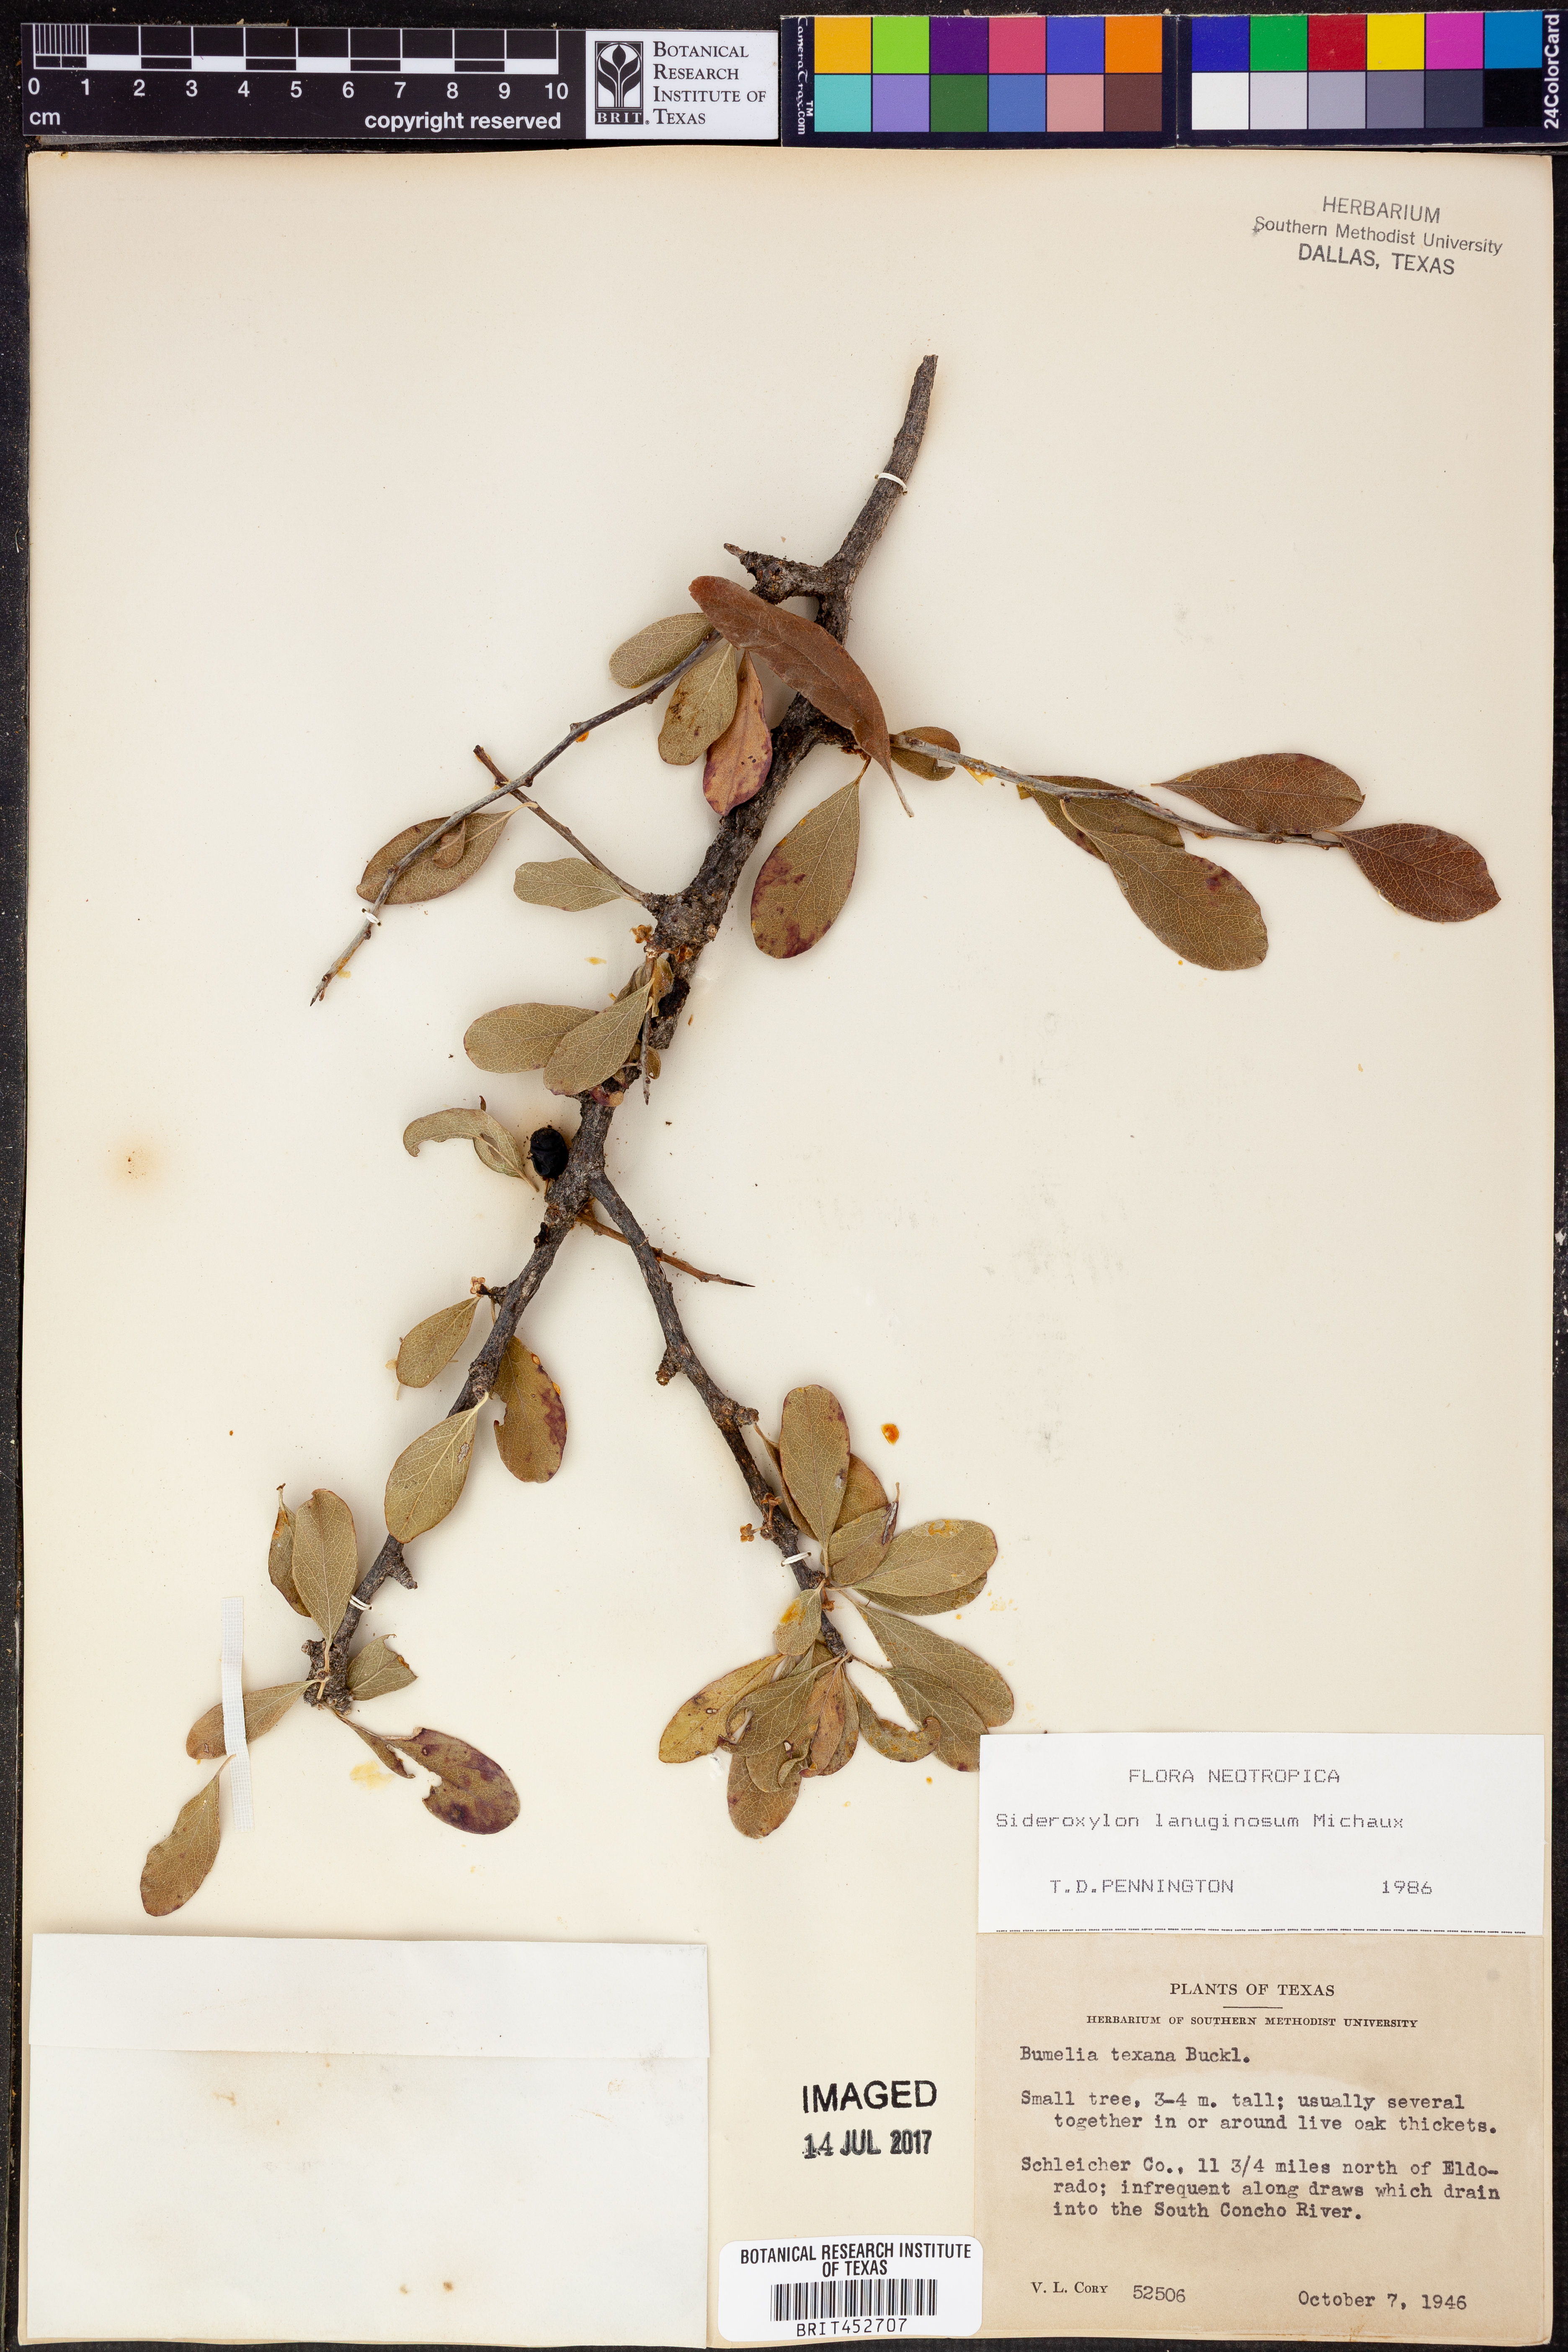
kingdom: Plantae
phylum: Tracheophyta
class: Magnoliopsida
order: Ericales
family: Sapotaceae
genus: Sideroxylon
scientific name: Sideroxylon lanuginosum
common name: Chittamwood
